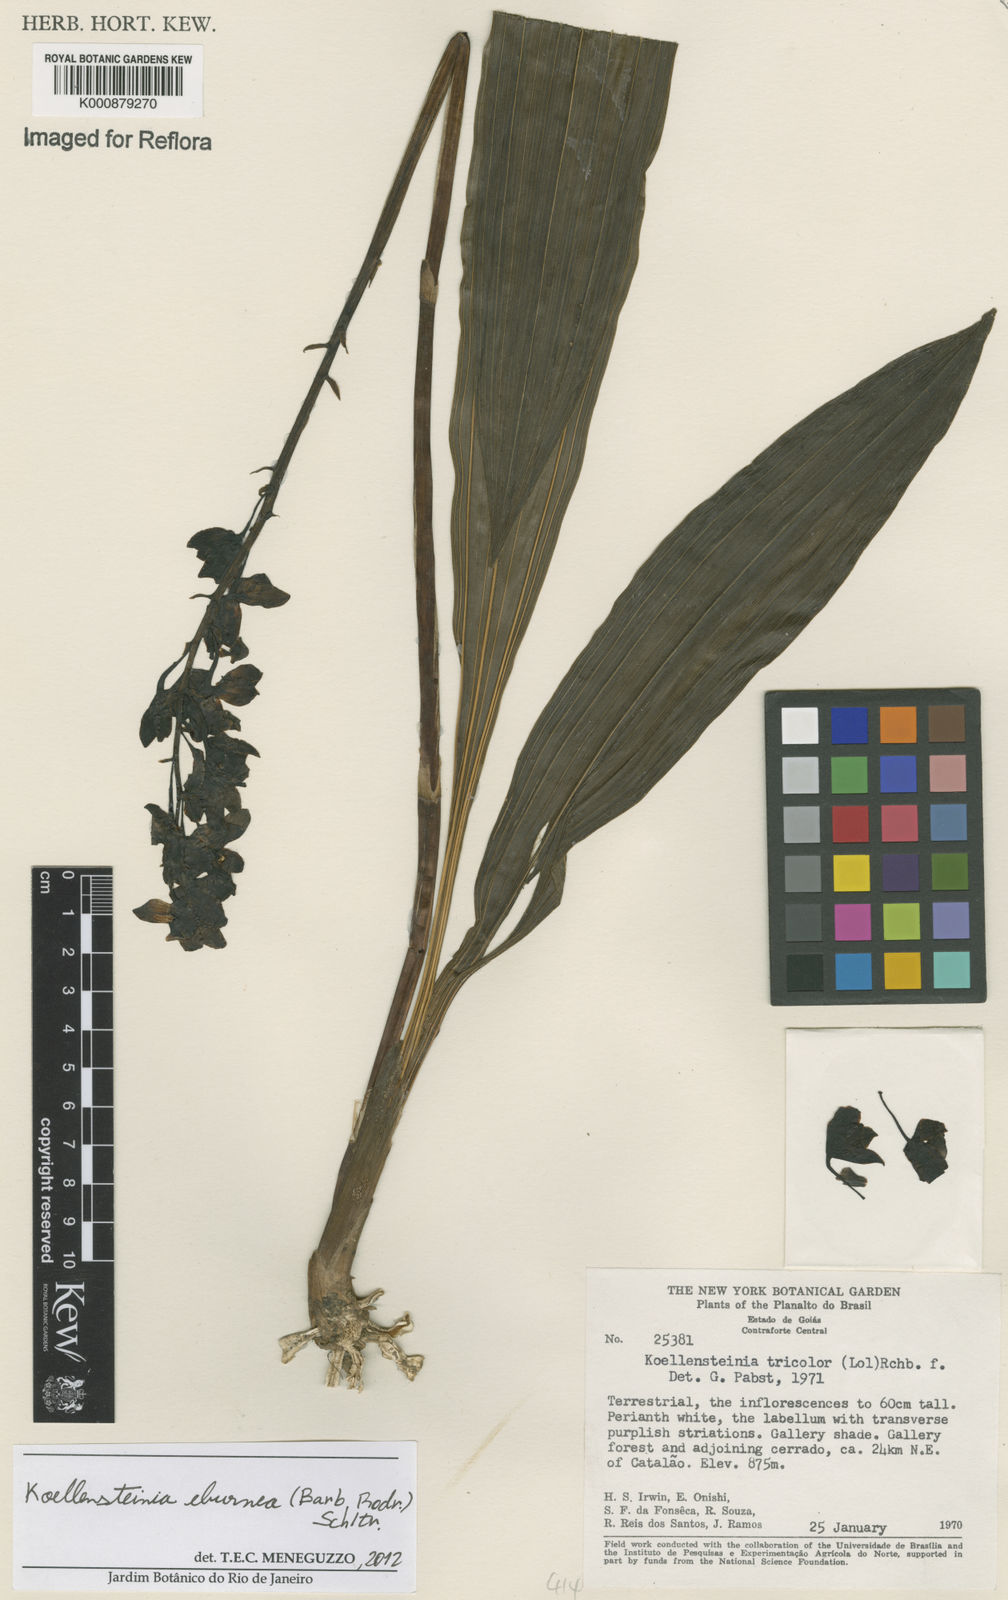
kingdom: Plantae
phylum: Tracheophyta
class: Liliopsida
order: Asparagales
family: Orchidaceae
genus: Koellensteinia
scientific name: Koellensteinia eburnea
